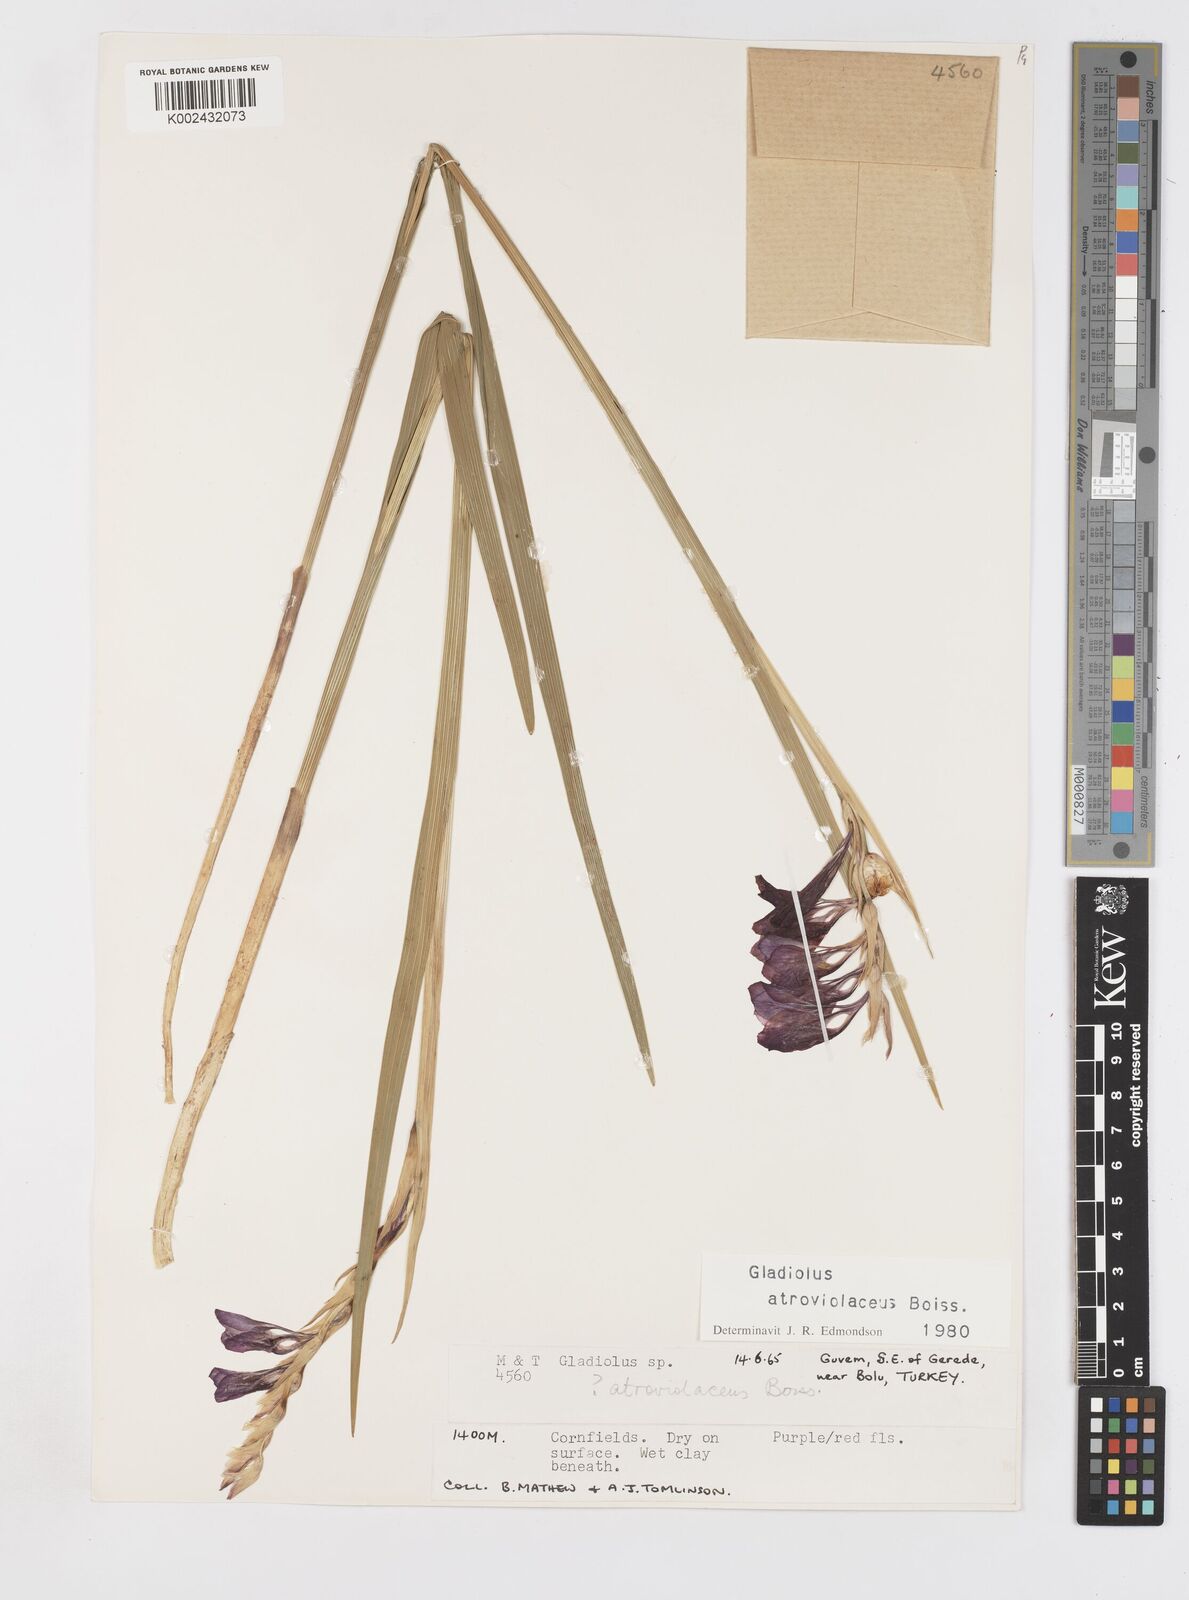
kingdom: Plantae
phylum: Tracheophyta
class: Liliopsida
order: Asparagales
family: Iridaceae
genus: Gladiolus
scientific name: Gladiolus atroviolaceus
